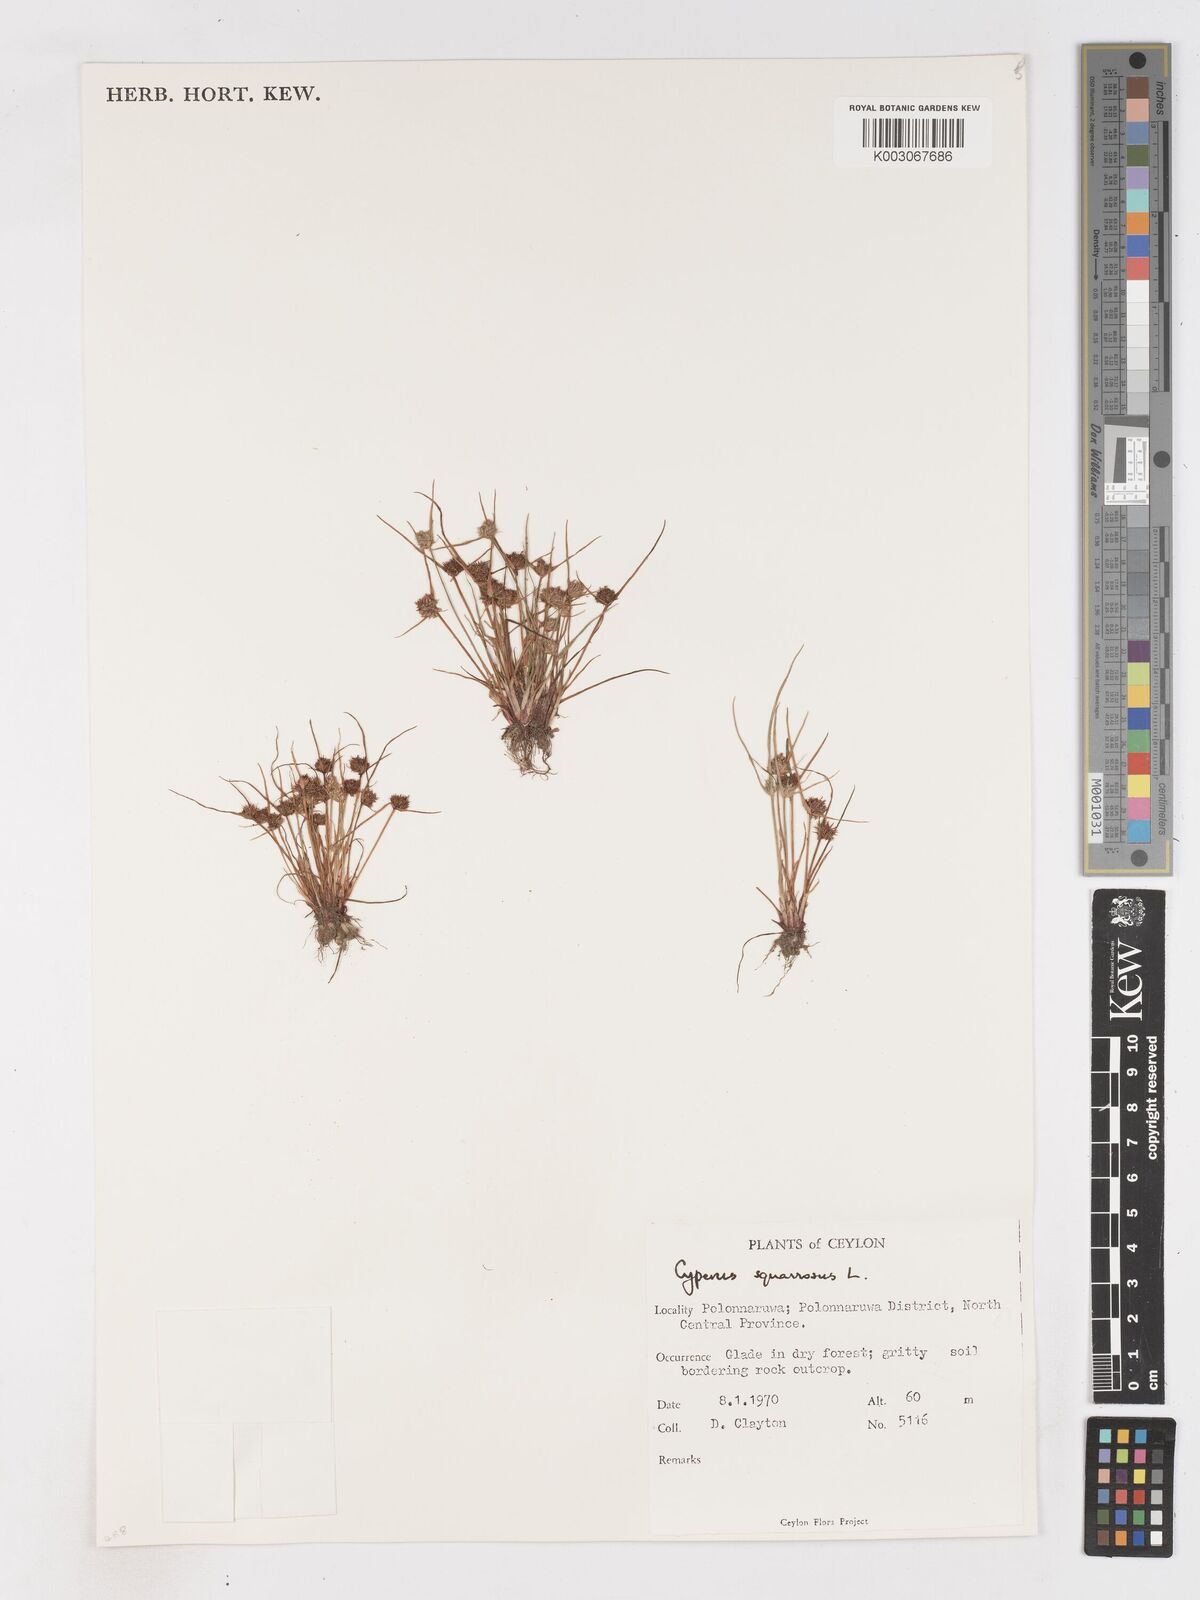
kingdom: Plantae
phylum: Tracheophyta
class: Liliopsida
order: Poales
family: Cyperaceae
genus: Cyperus
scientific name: Cyperus squarrosus
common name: Awned cyperus
